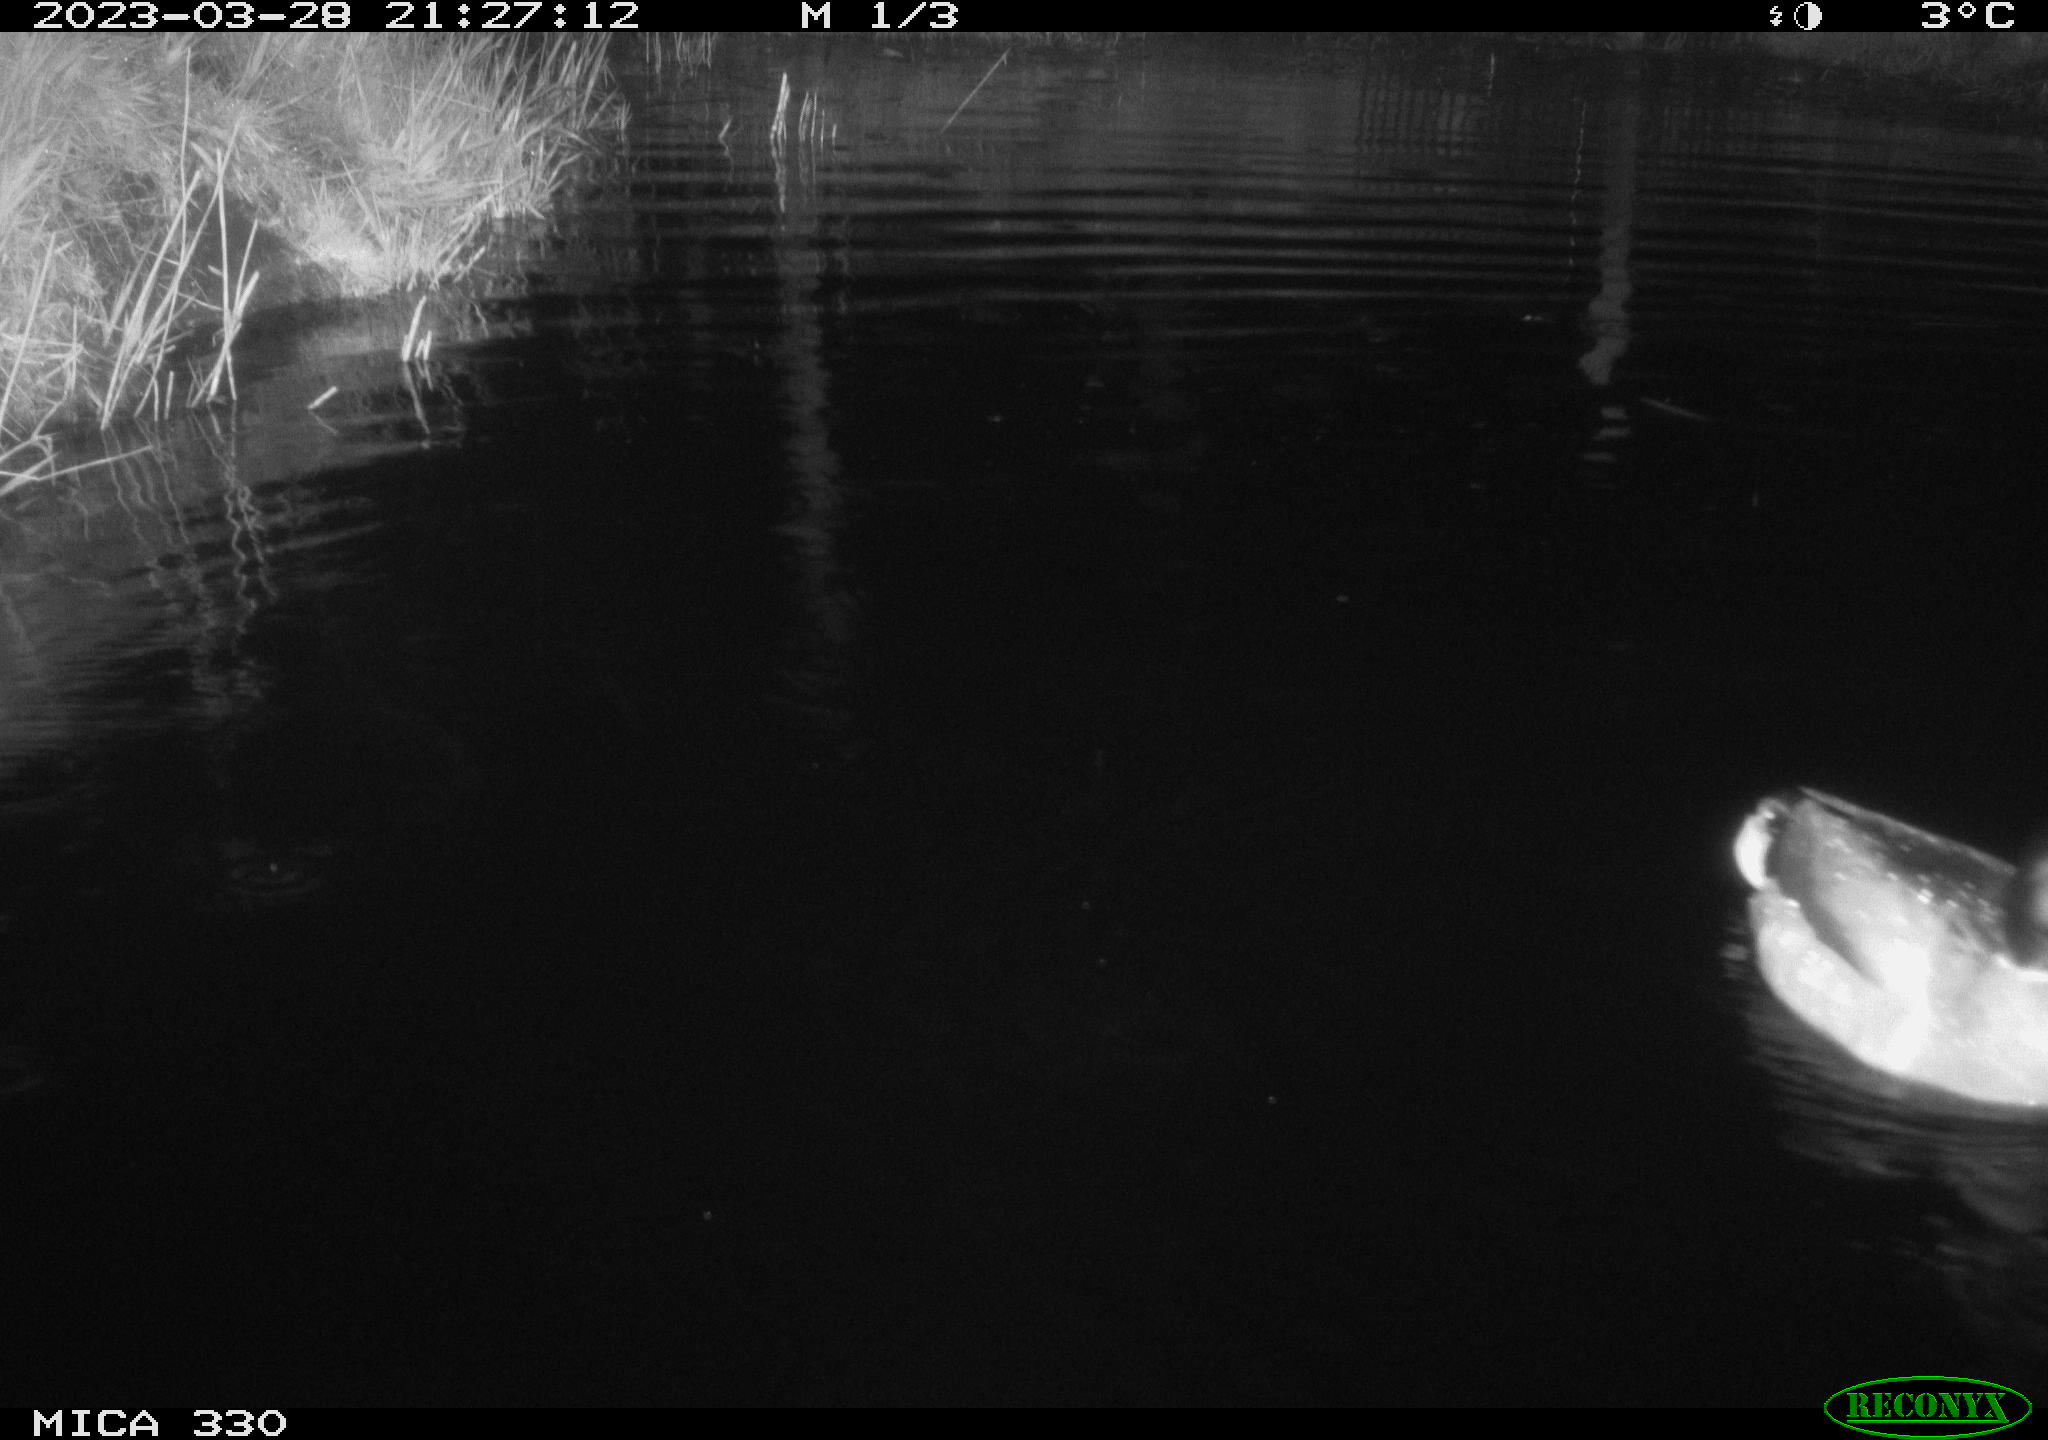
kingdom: Animalia
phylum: Chordata
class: Aves
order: Anseriformes
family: Anatidae
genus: Anas
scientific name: Anas
